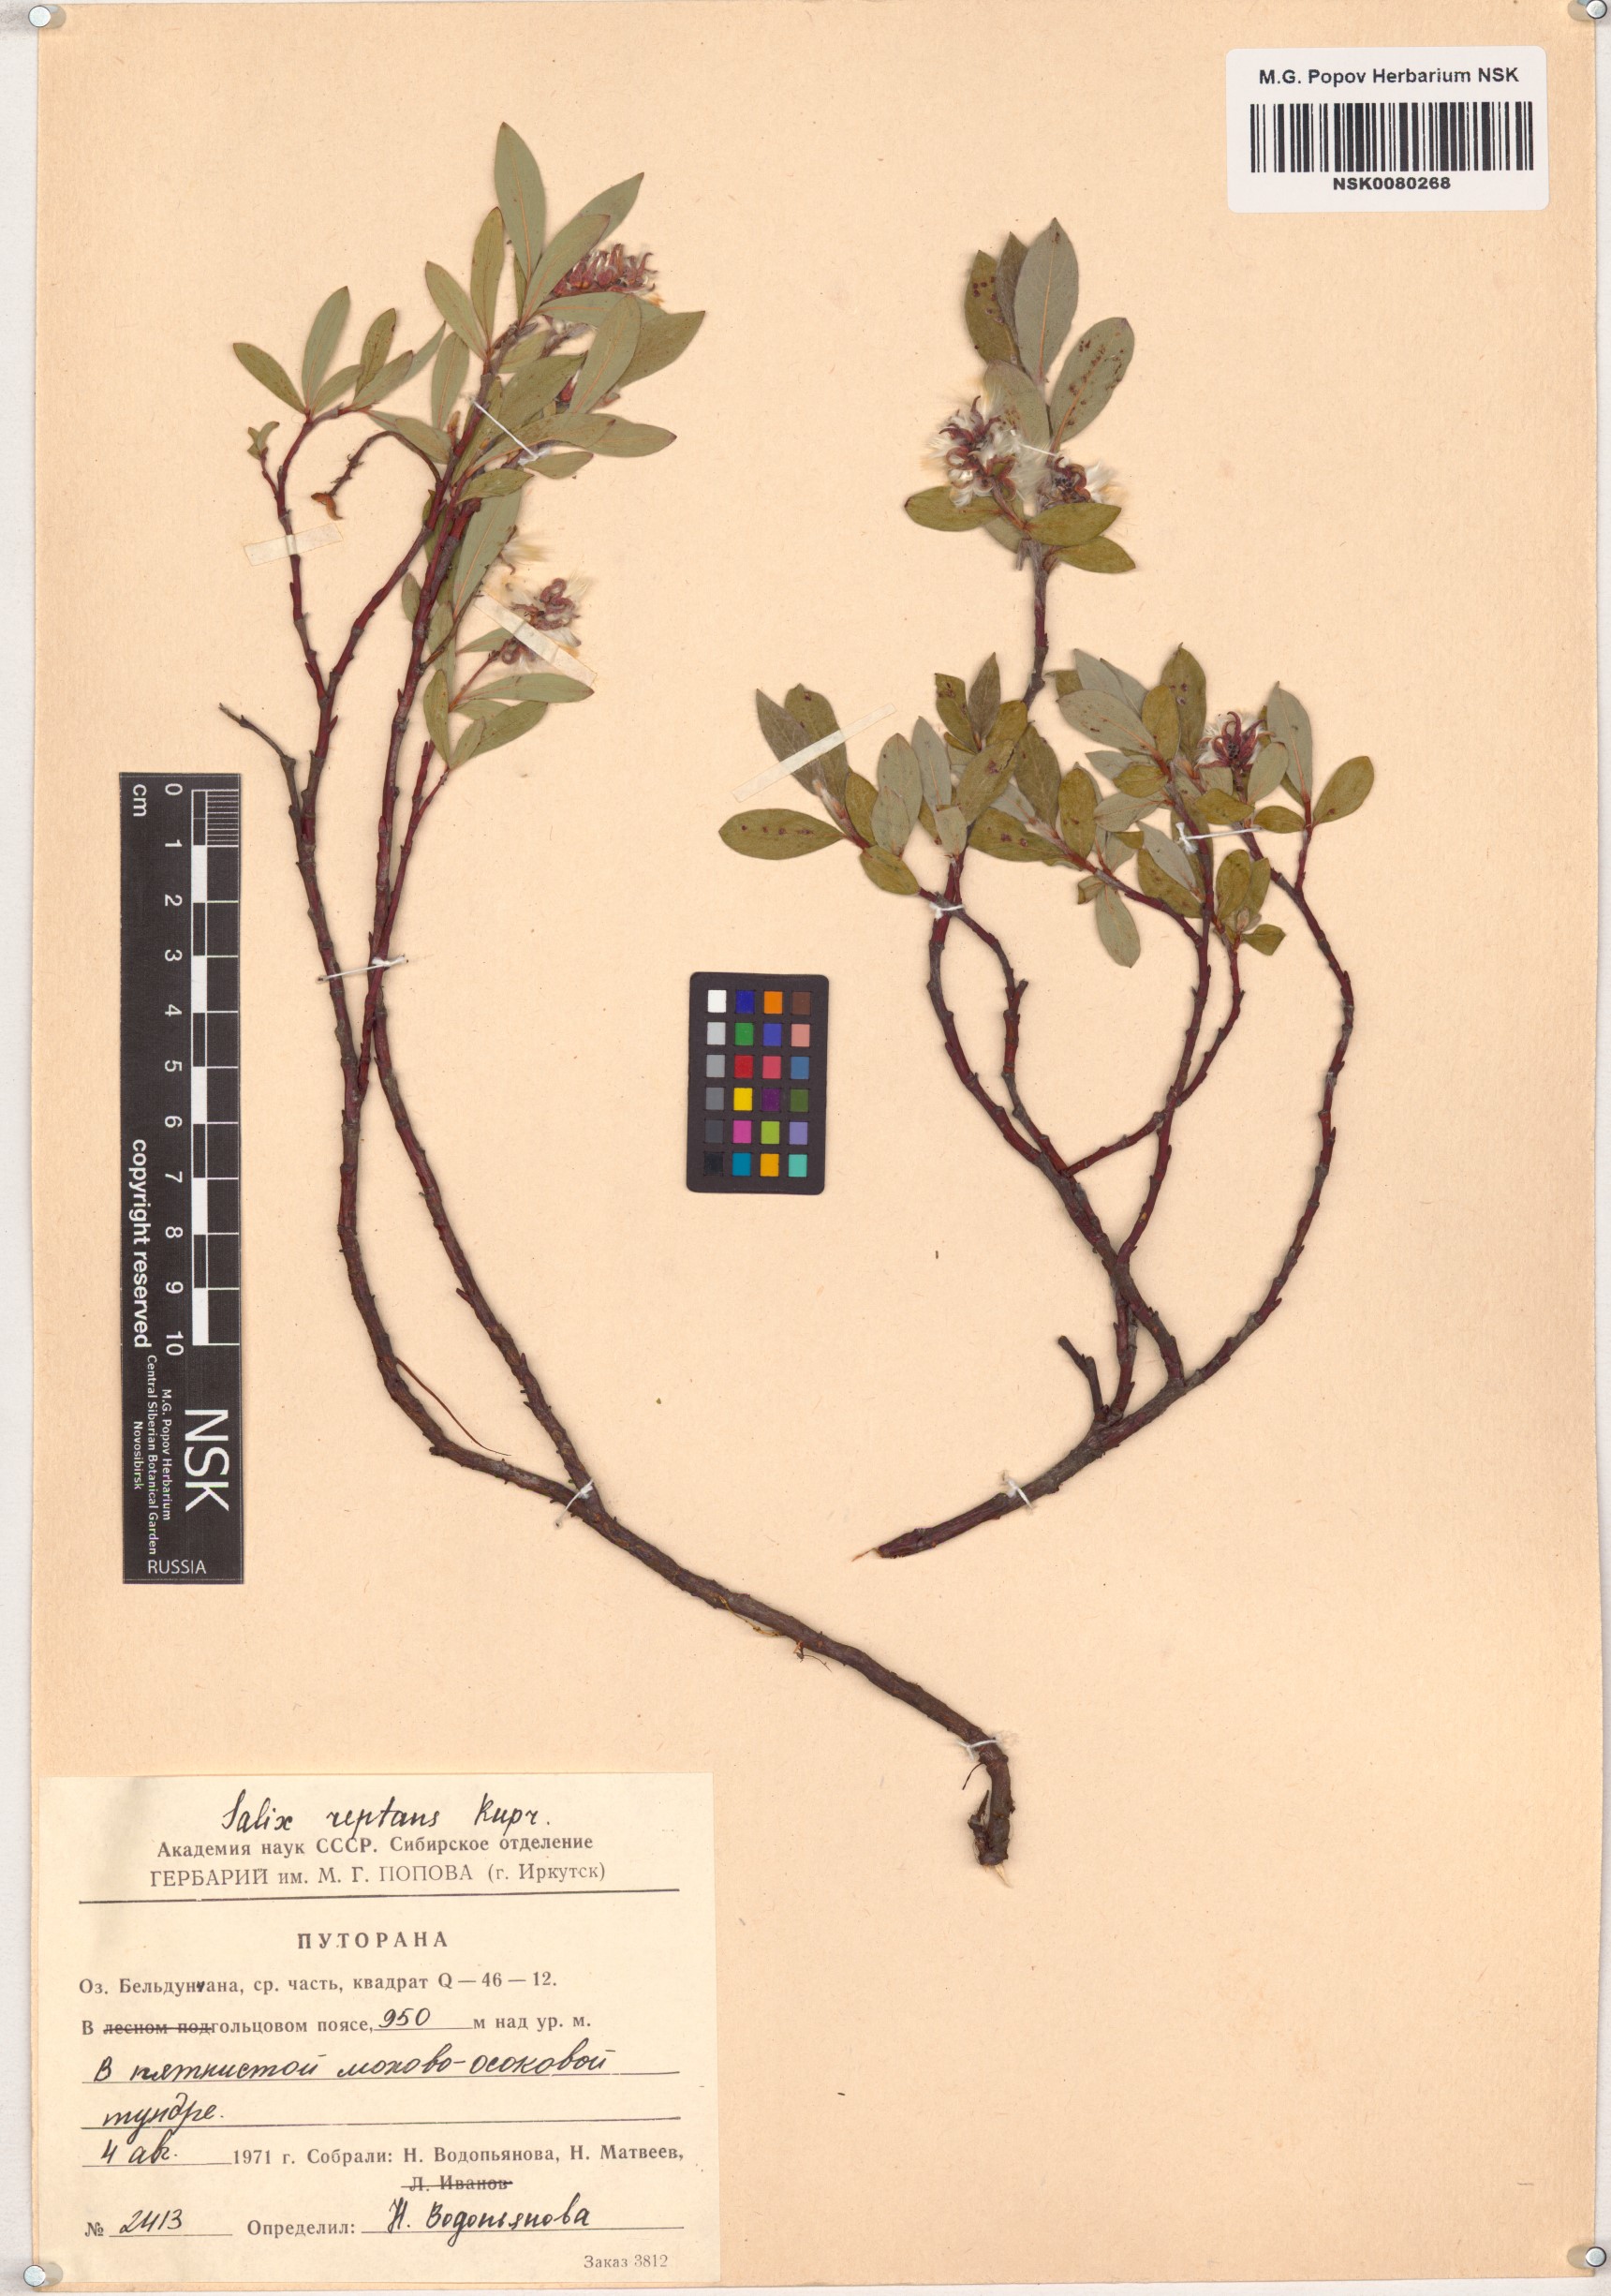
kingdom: Plantae
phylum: Tracheophyta
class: Magnoliopsida
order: Malpighiales
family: Salicaceae
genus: Salix
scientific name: Salix reptans
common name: Arctic creeping willow
